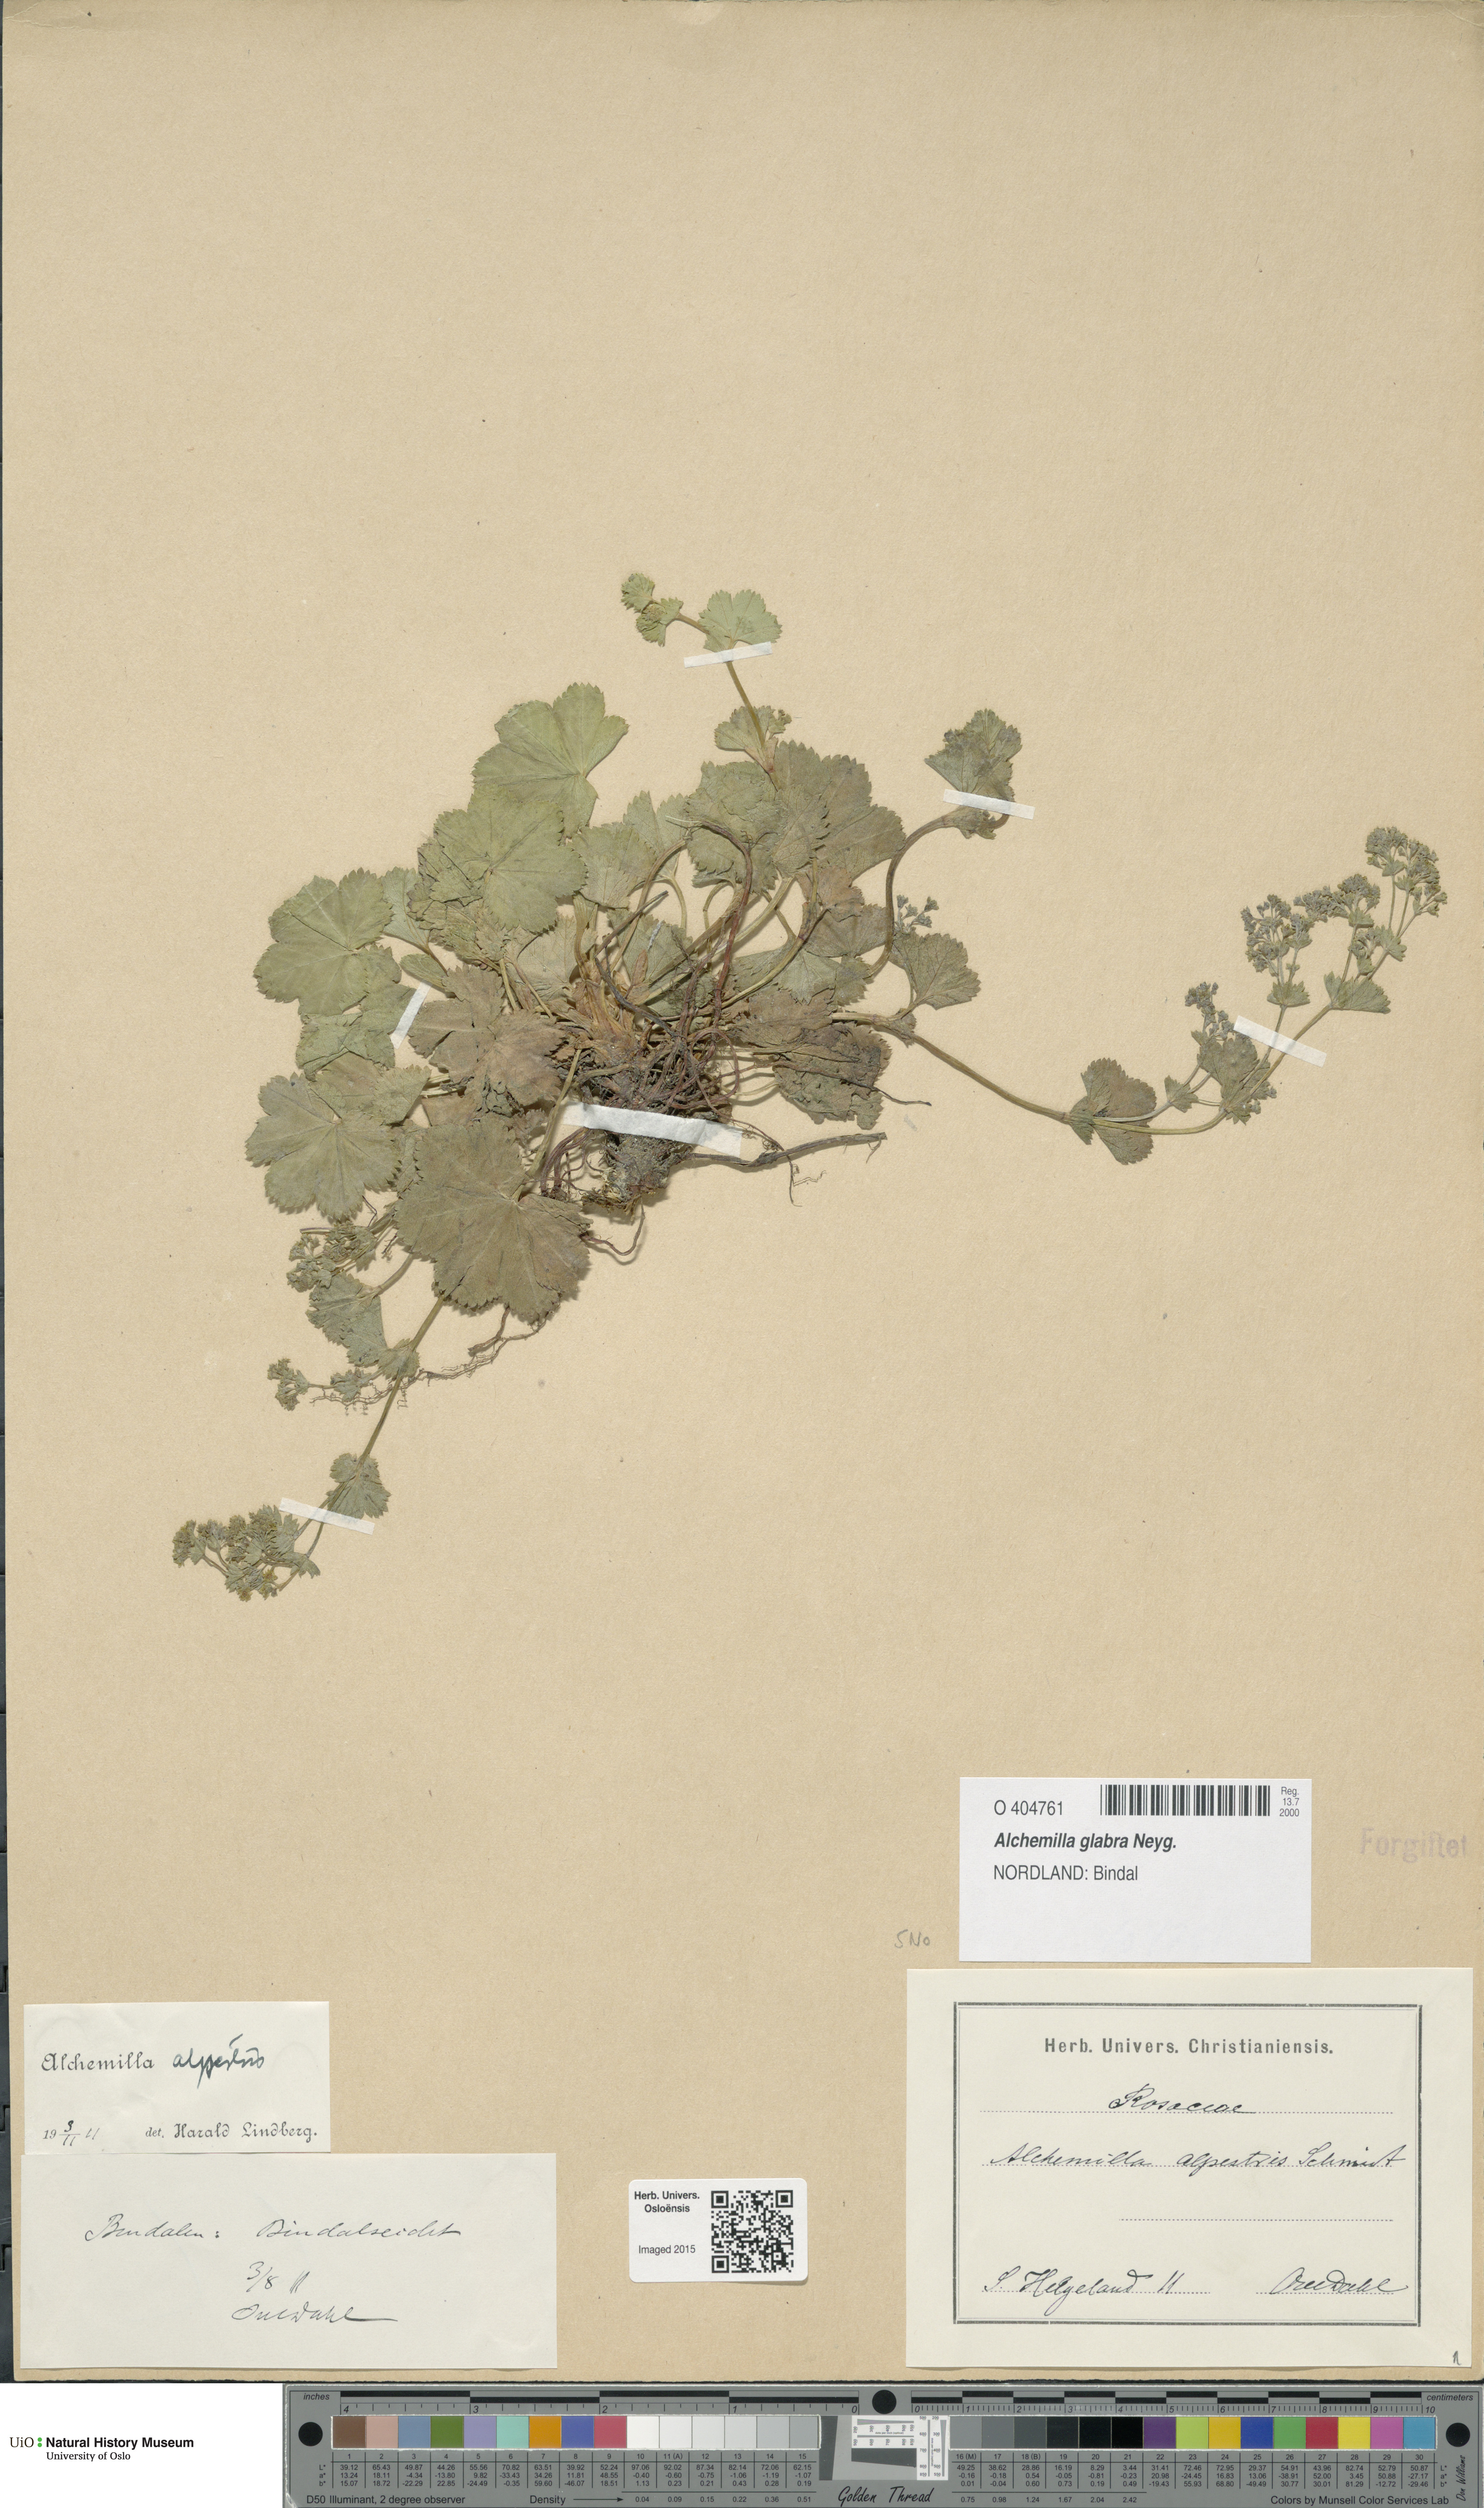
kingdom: Plantae
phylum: Tracheophyta
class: Magnoliopsida
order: Rosales
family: Rosaceae
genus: Alchemilla
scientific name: Alchemilla glabra
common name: Smooth lady's-mantle
